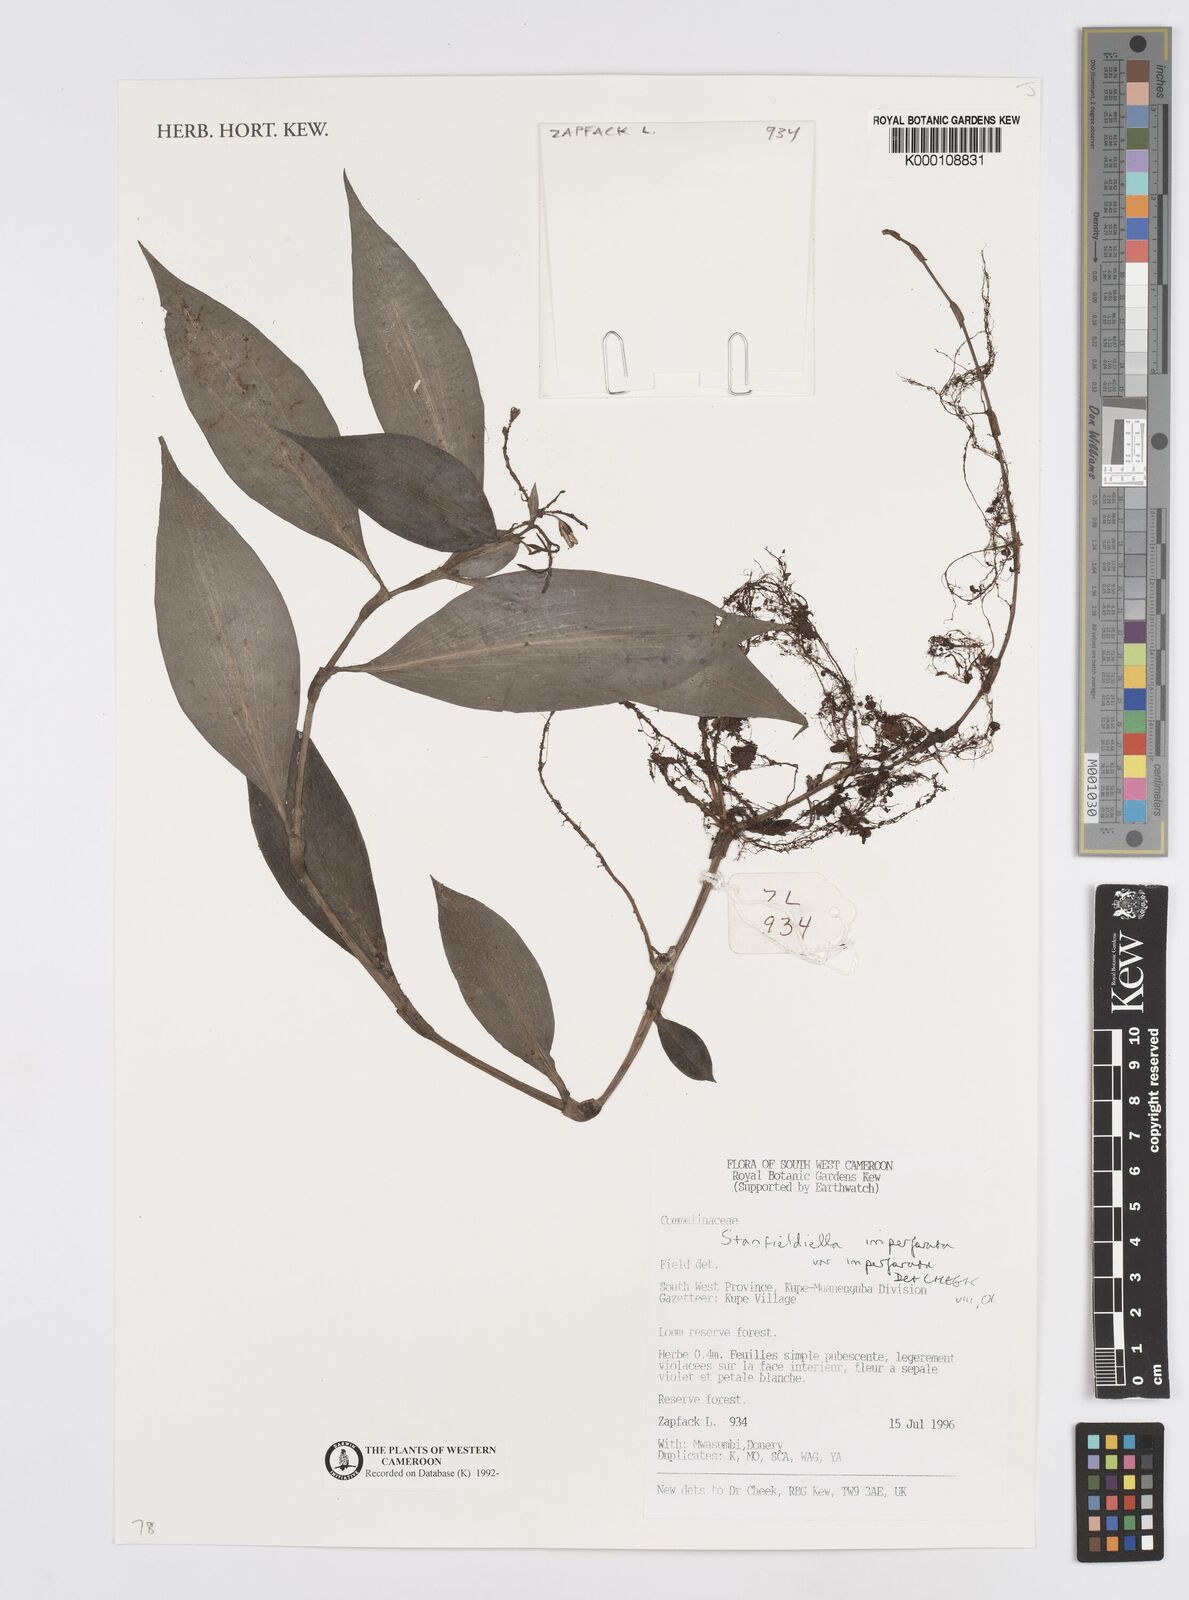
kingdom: Plantae
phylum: Tracheophyta
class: Liliopsida
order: Commelinales
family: Commelinaceae
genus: Stanfieldiella
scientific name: Stanfieldiella imperforata
